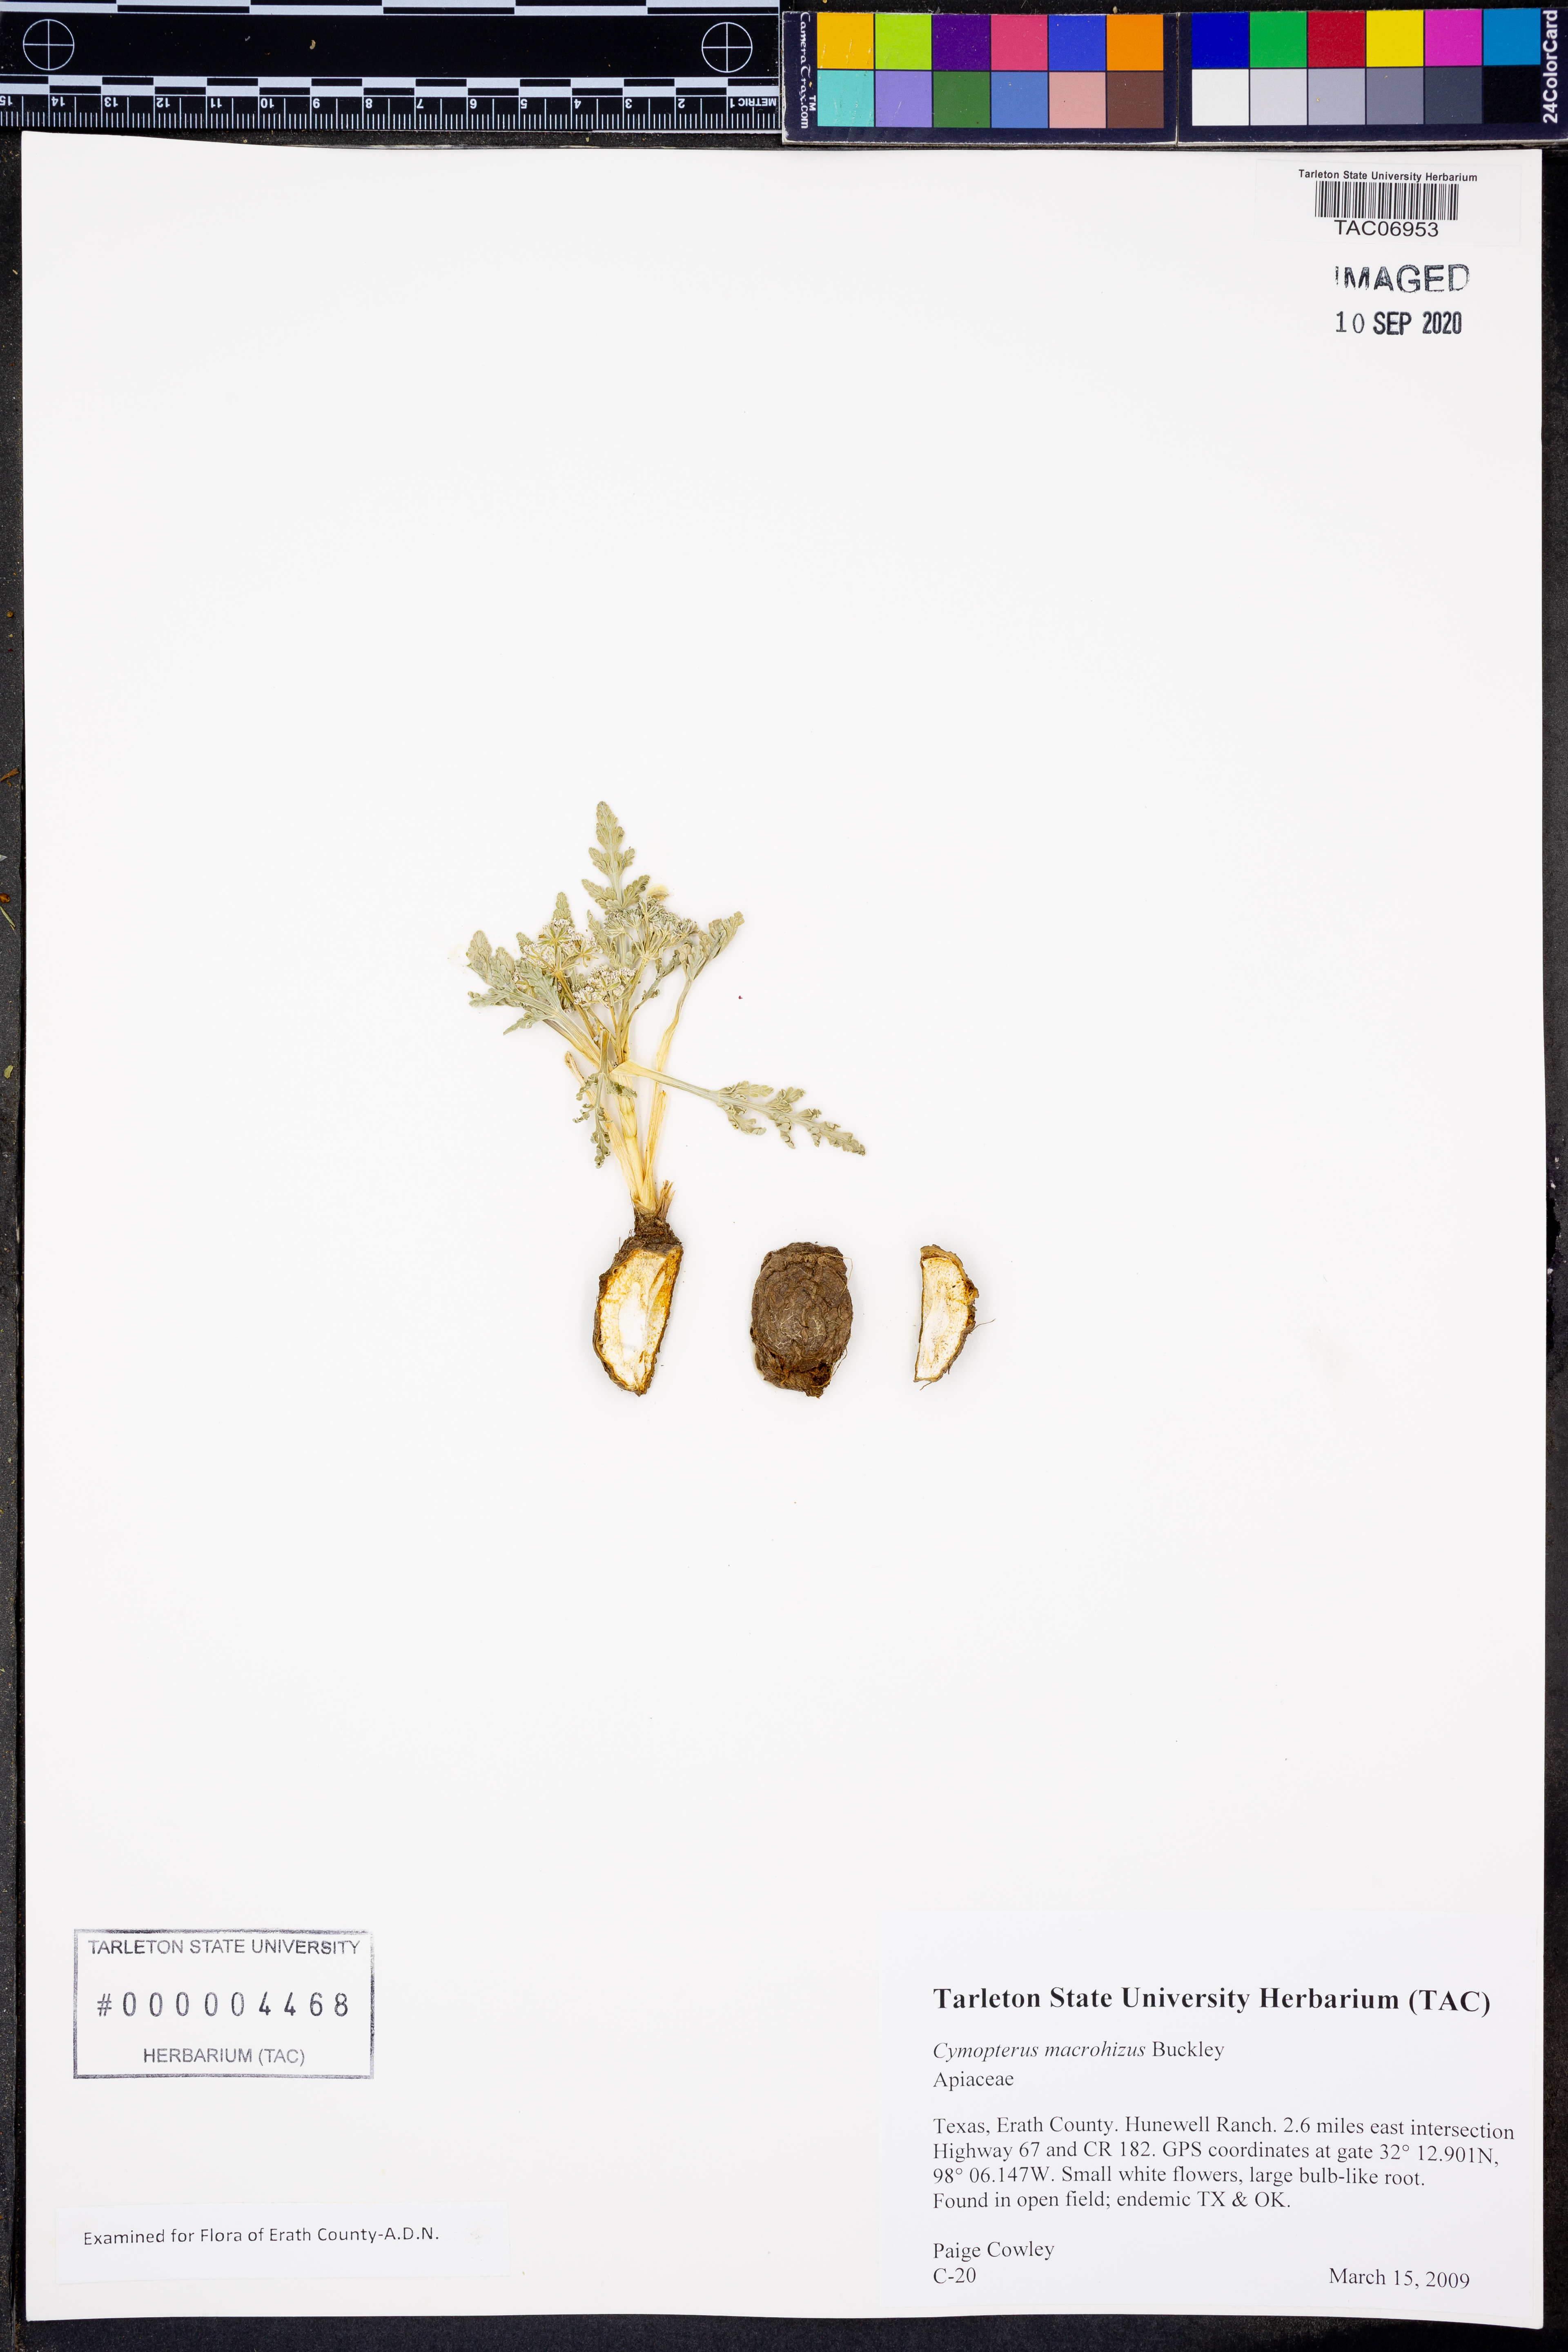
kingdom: Plantae
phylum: Tracheophyta
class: Magnoliopsida
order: Apiales
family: Apiaceae
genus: Vesper
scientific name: Vesper macrorhizus
